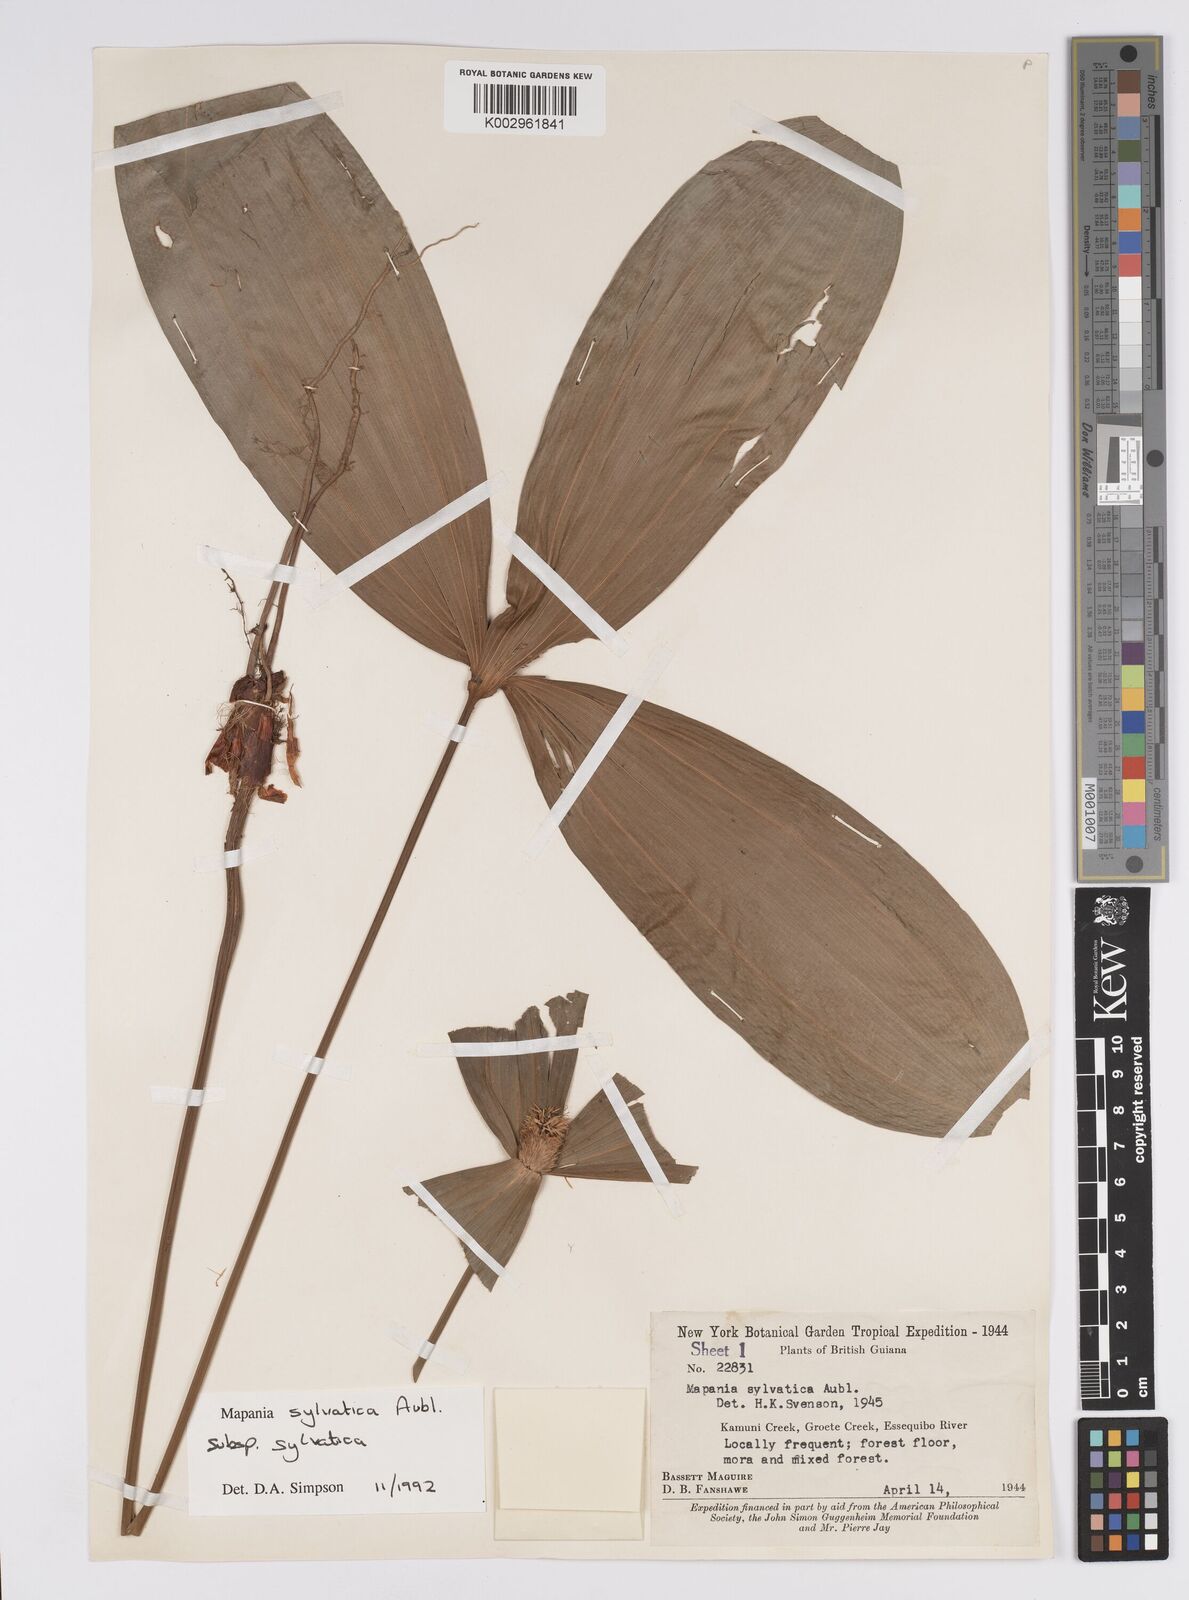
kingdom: Plantae
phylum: Tracheophyta
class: Liliopsida
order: Poales
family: Cyperaceae
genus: Mapania
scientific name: Mapania sylvatica
